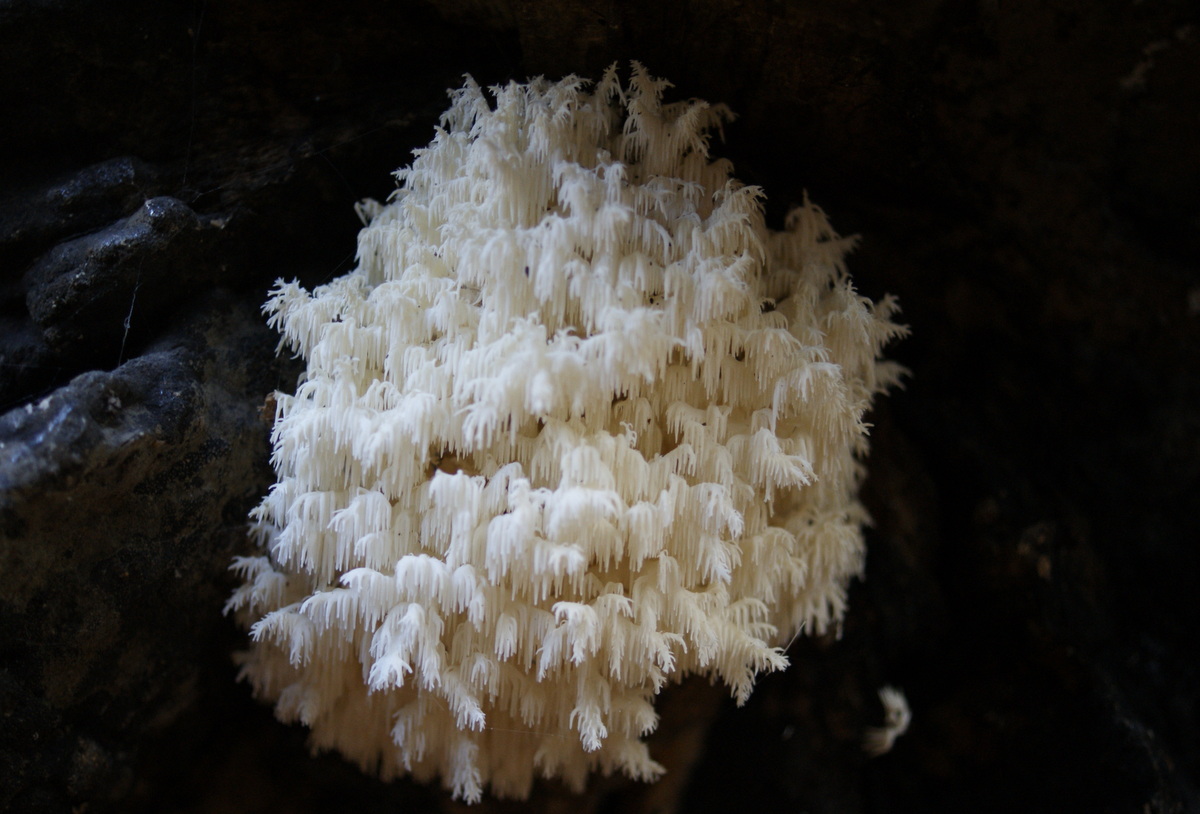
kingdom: Fungi
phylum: Basidiomycota
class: Agaricomycetes
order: Russulales
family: Hericiaceae
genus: Hericium
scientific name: Hericium coralloides
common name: koralpigsvamp
